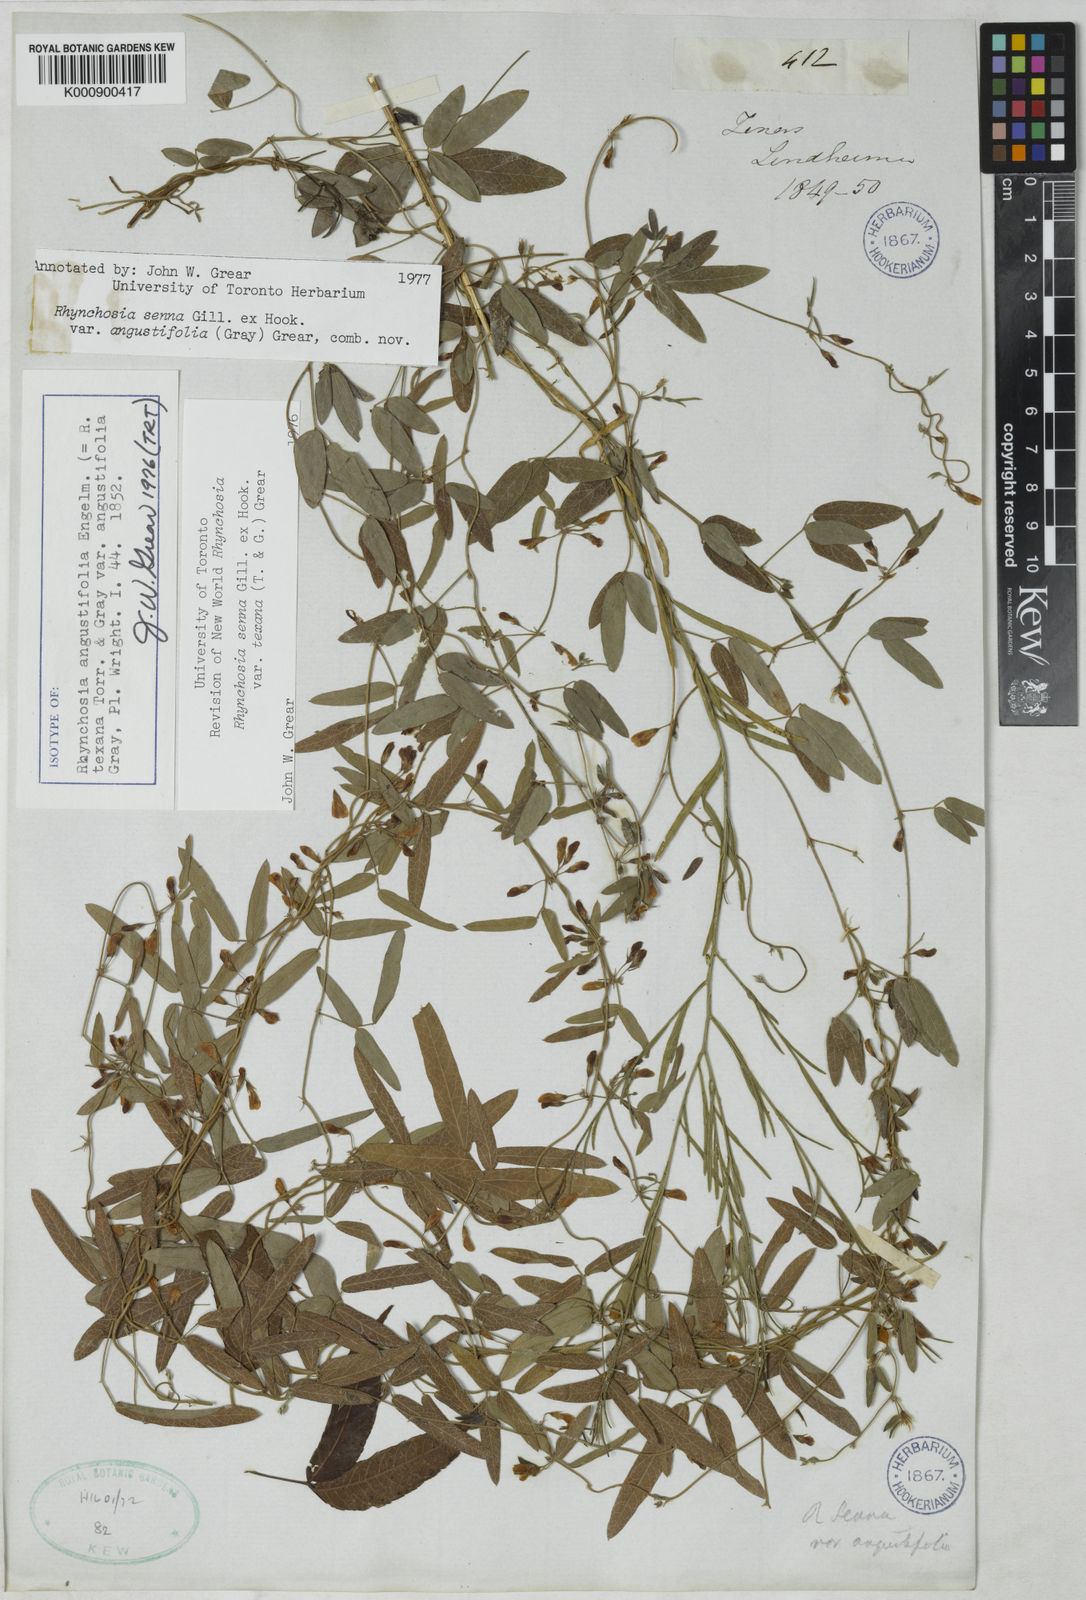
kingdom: Plantae
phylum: Tracheophyta
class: Magnoliopsida
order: Fabales
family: Fabaceae
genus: Rhynchosia
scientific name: Rhynchosia senna
